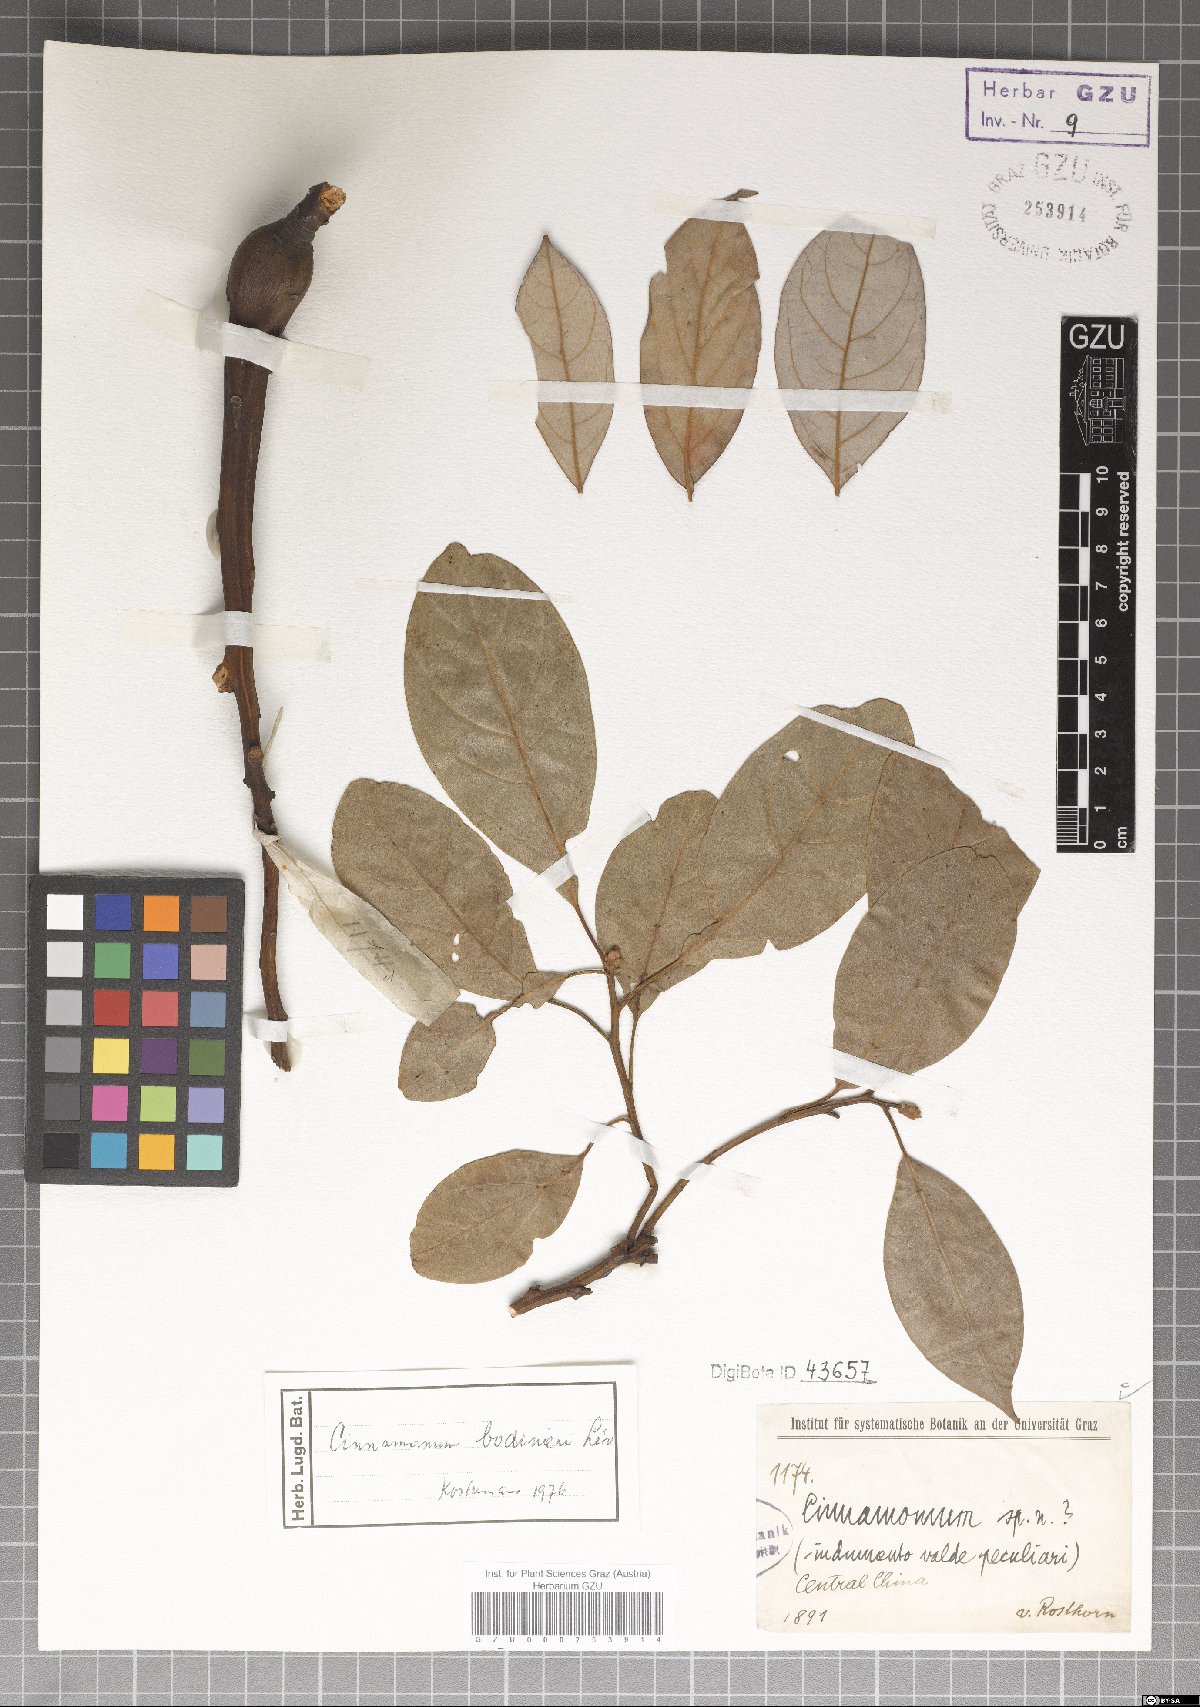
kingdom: Plantae
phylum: Tracheophyta
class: Magnoliopsida
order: Laurales
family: Lauraceae
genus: Cinnamomum
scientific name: Cinnamomum bodinieri
